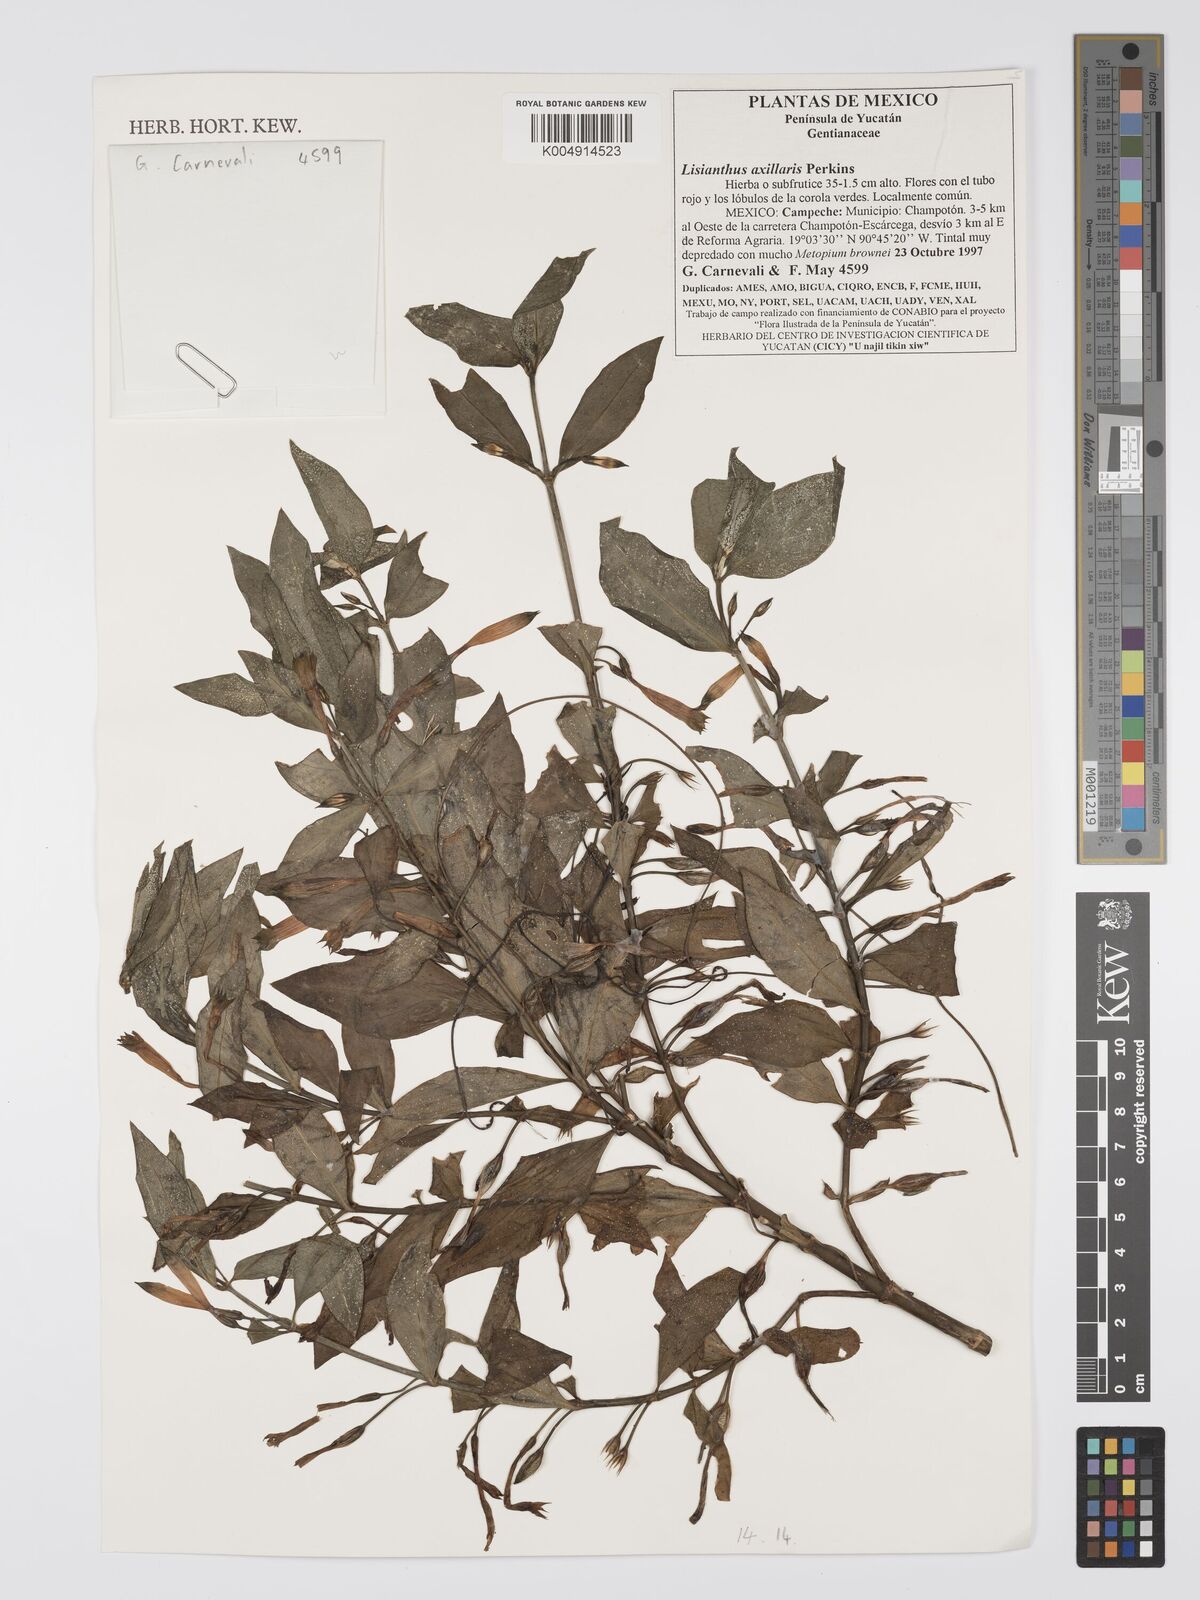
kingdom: Plantae
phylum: Tracheophyta
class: Magnoliopsida
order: Gentianales
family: Gentianaceae
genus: Lisianthius
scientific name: Lisianthius
